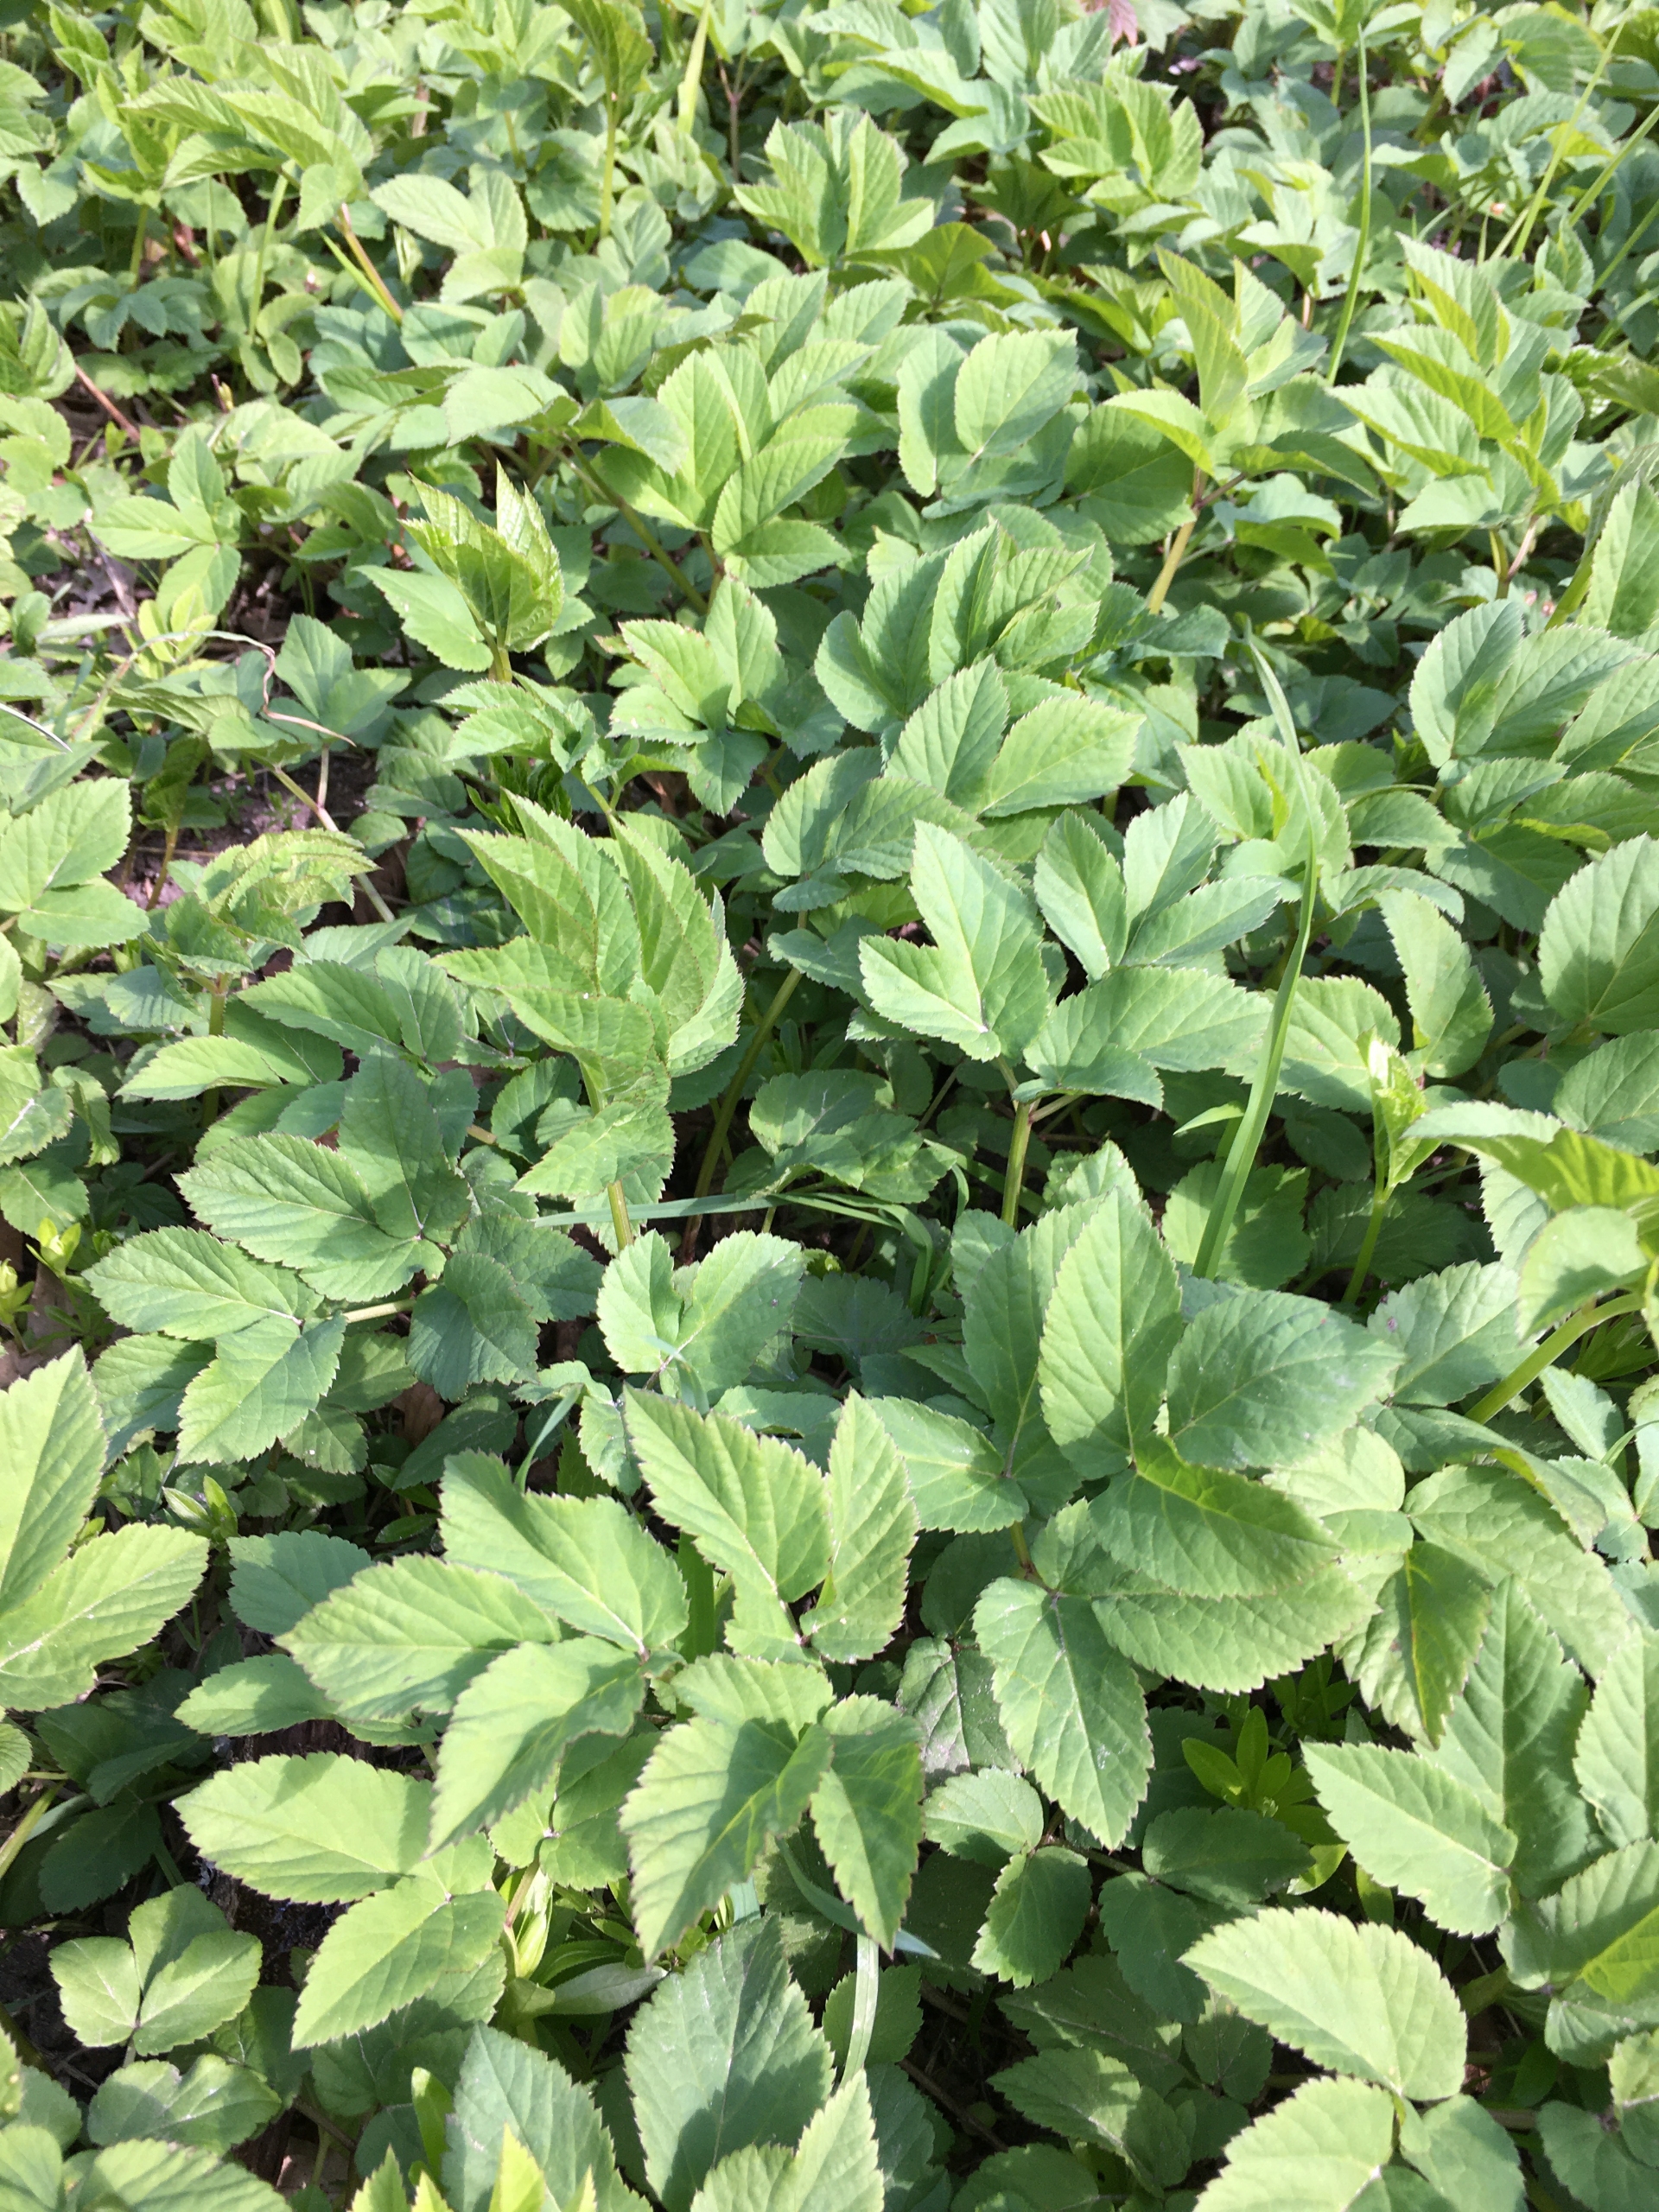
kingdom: Plantae
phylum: Tracheophyta
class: Magnoliopsida
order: Apiales
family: Apiaceae
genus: Aegopodium
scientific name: Aegopodium podagraria
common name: Skvalderkål
